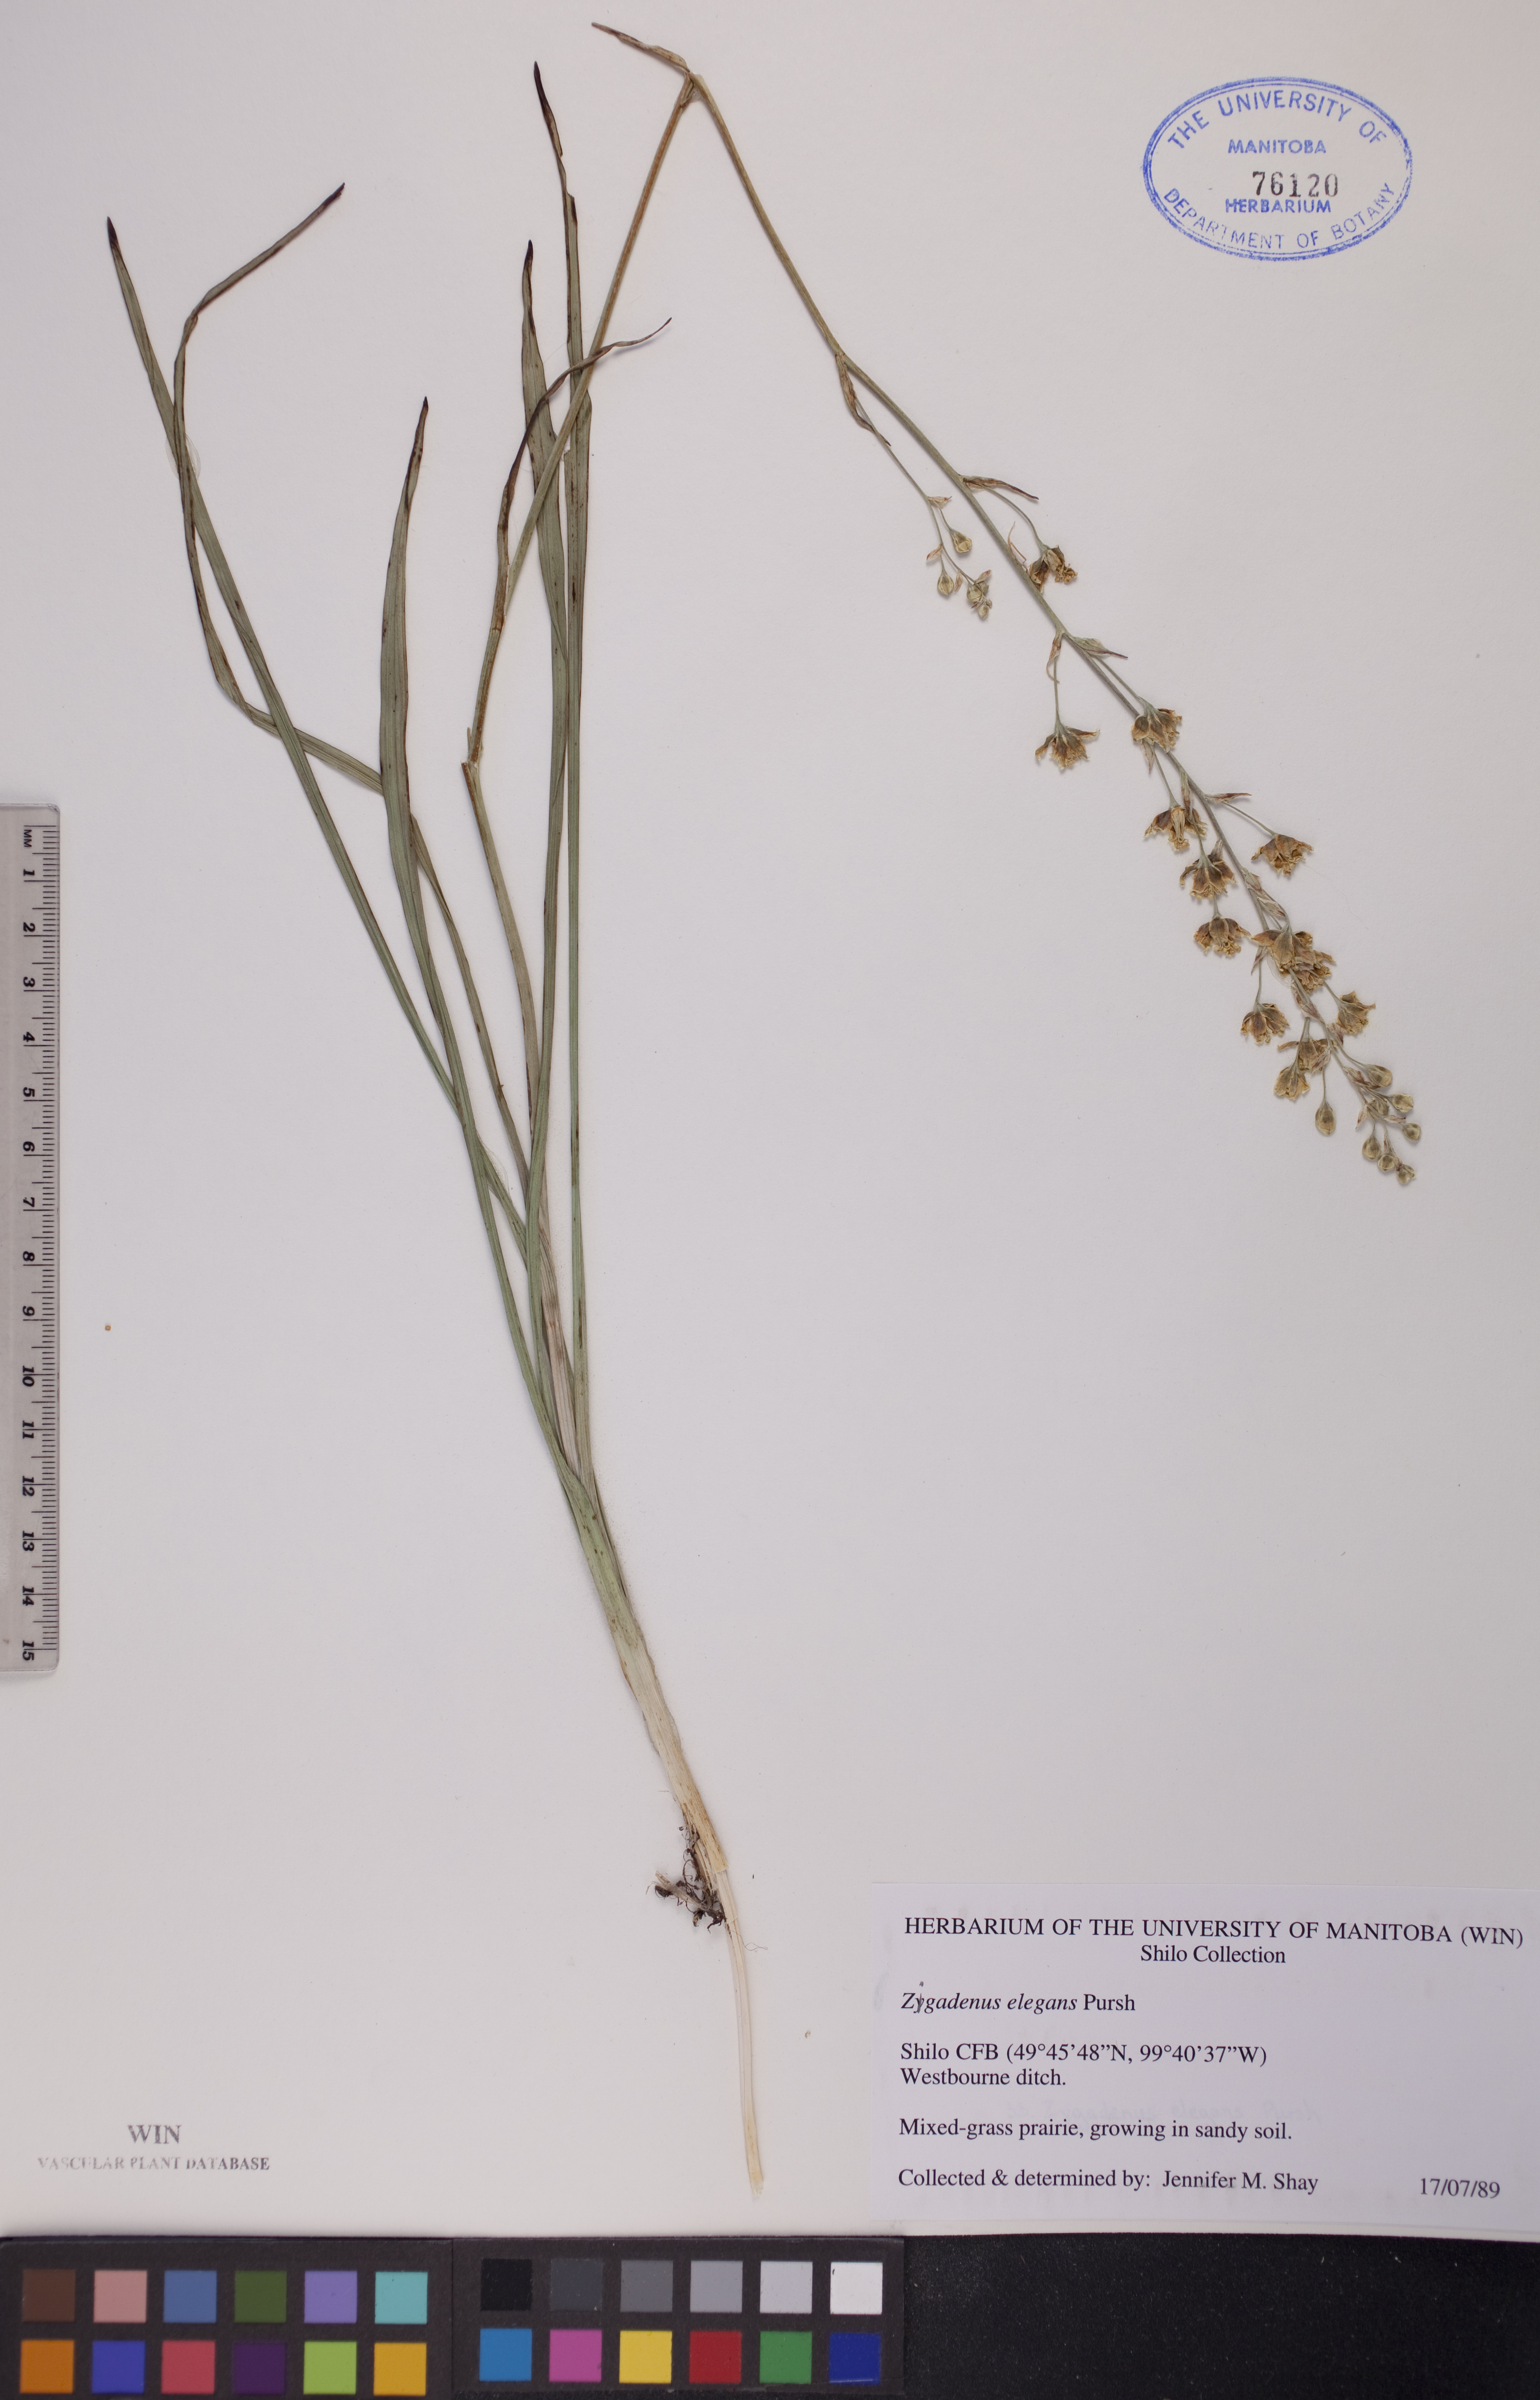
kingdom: Plantae
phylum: Tracheophyta
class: Liliopsida
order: Liliales
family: Melanthiaceae
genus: Anticlea
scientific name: Anticlea elegans
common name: Mountain death camas
